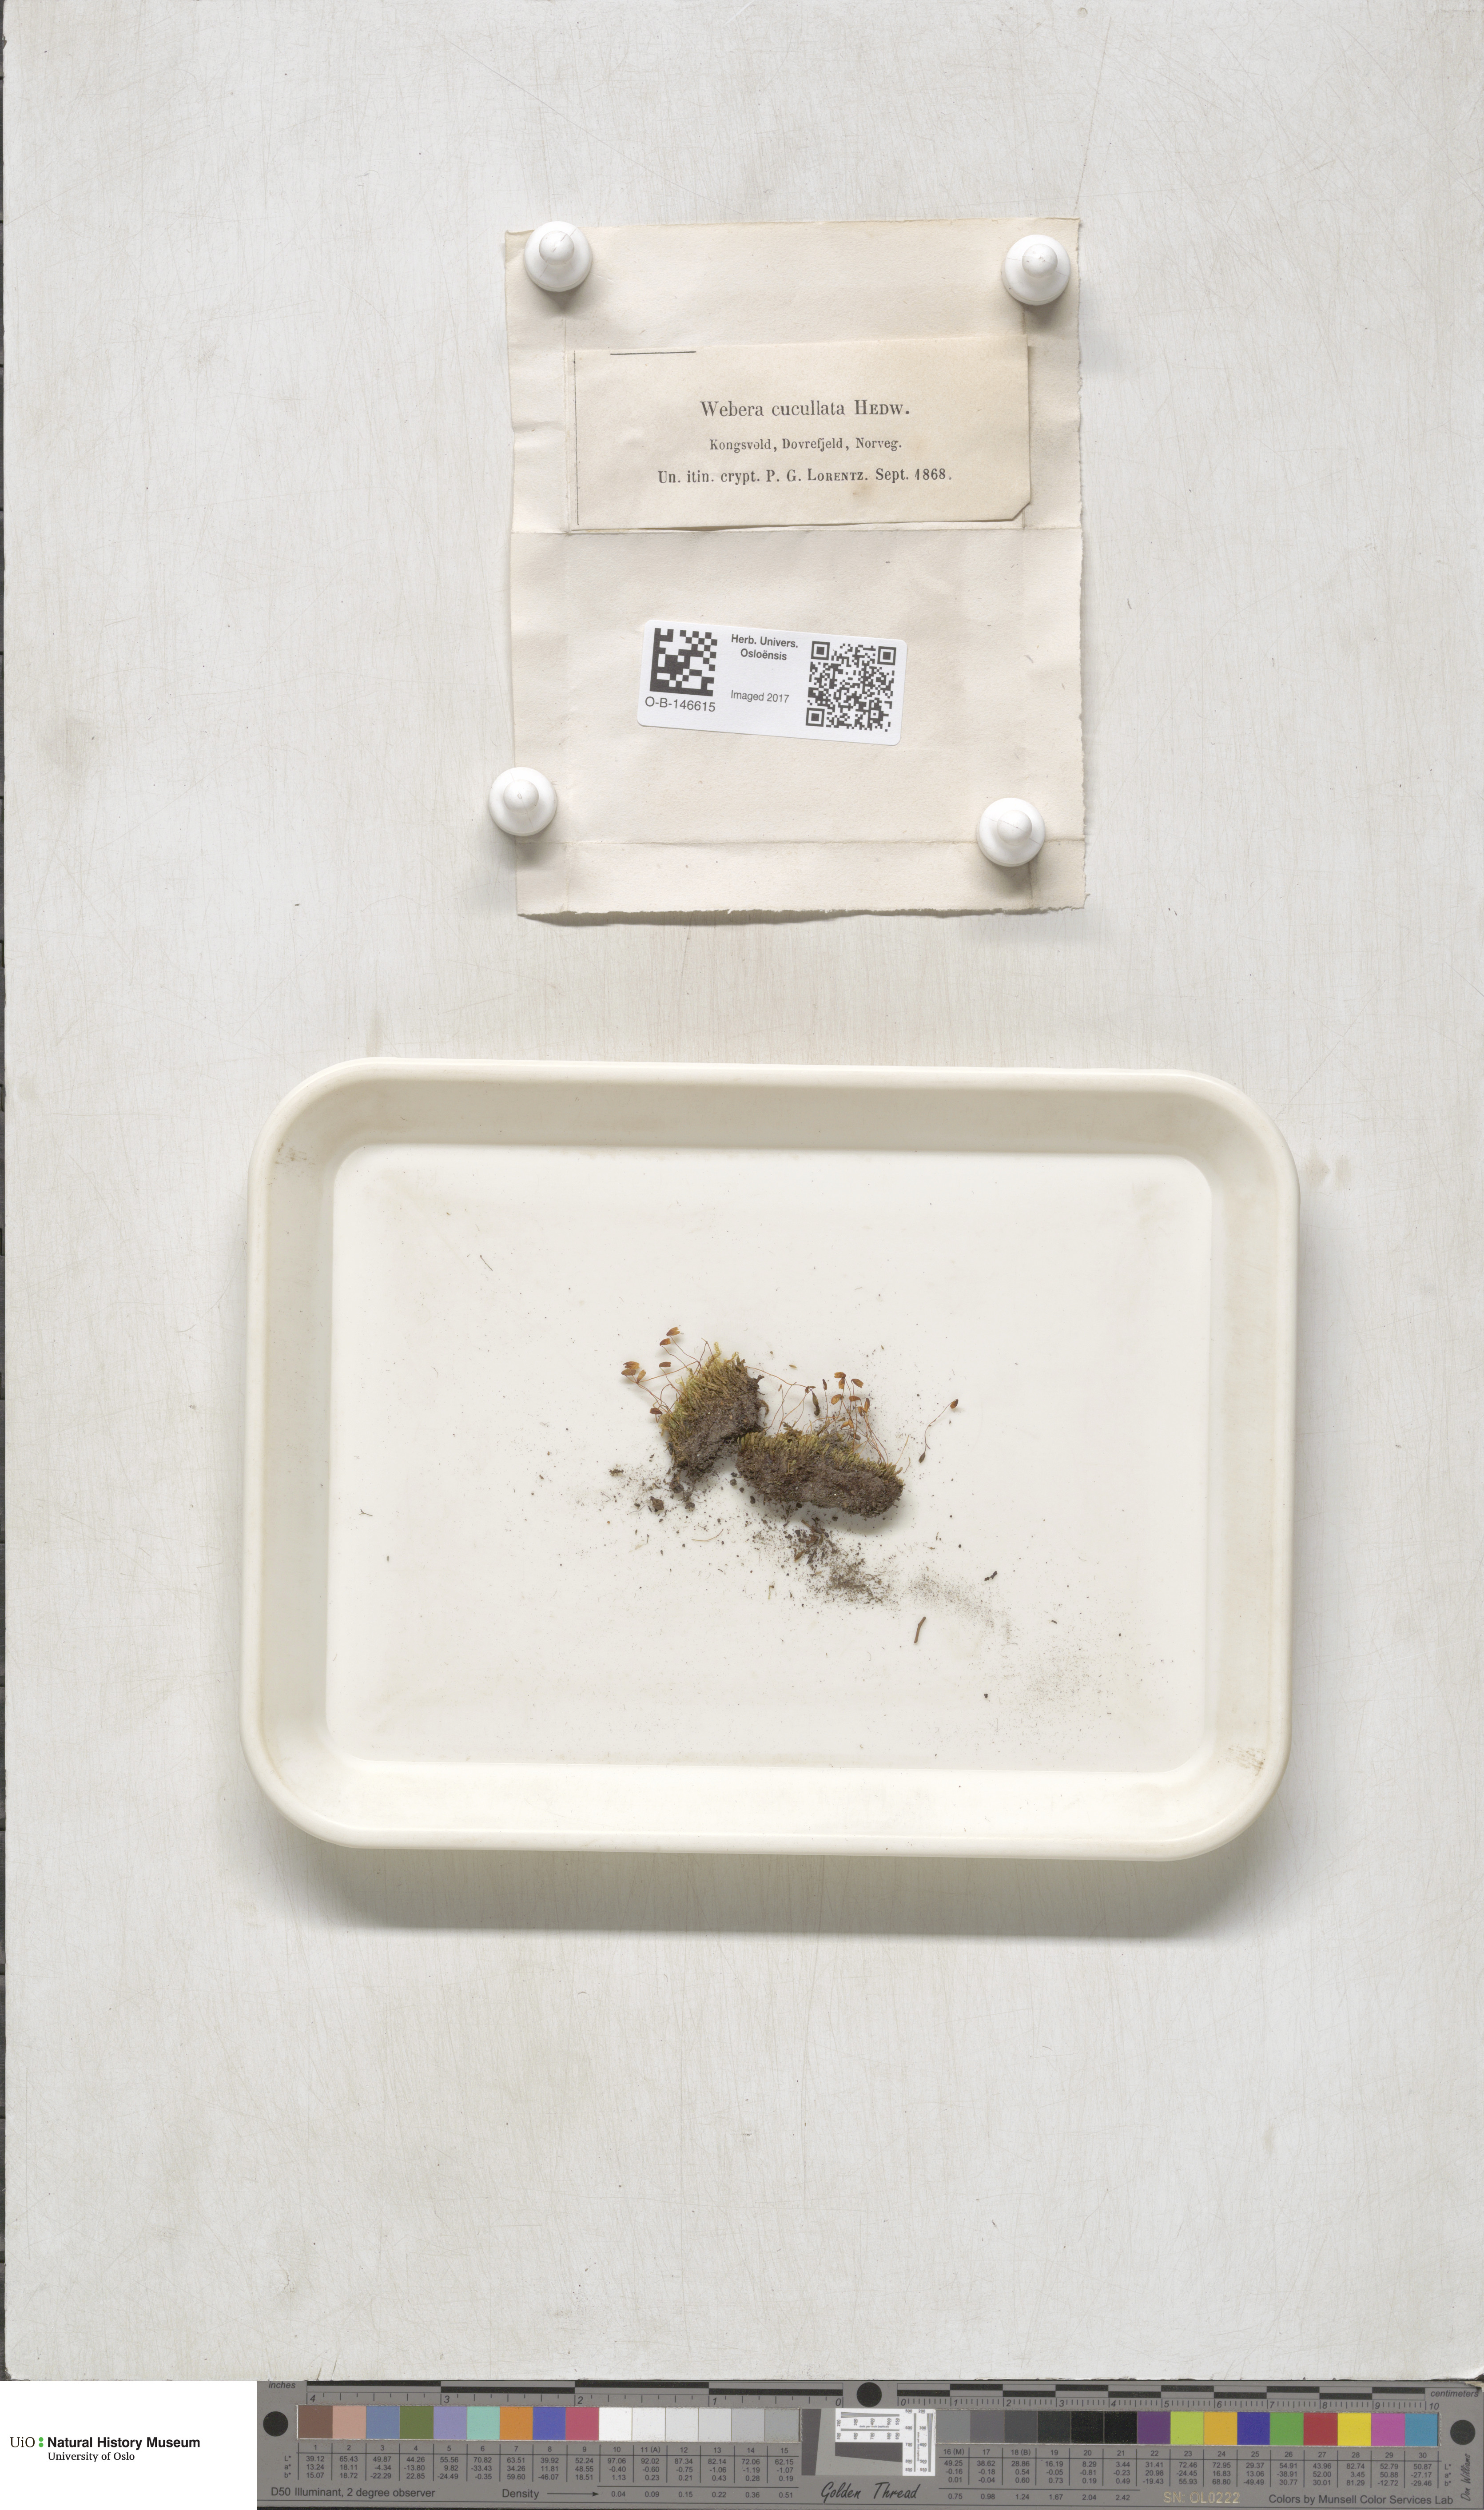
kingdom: Plantae
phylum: Bryophyta
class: Bryopsida
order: Bryales
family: Mniaceae
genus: Pohlia
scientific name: Pohlia obtusifolia
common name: Blunt nodding moss
